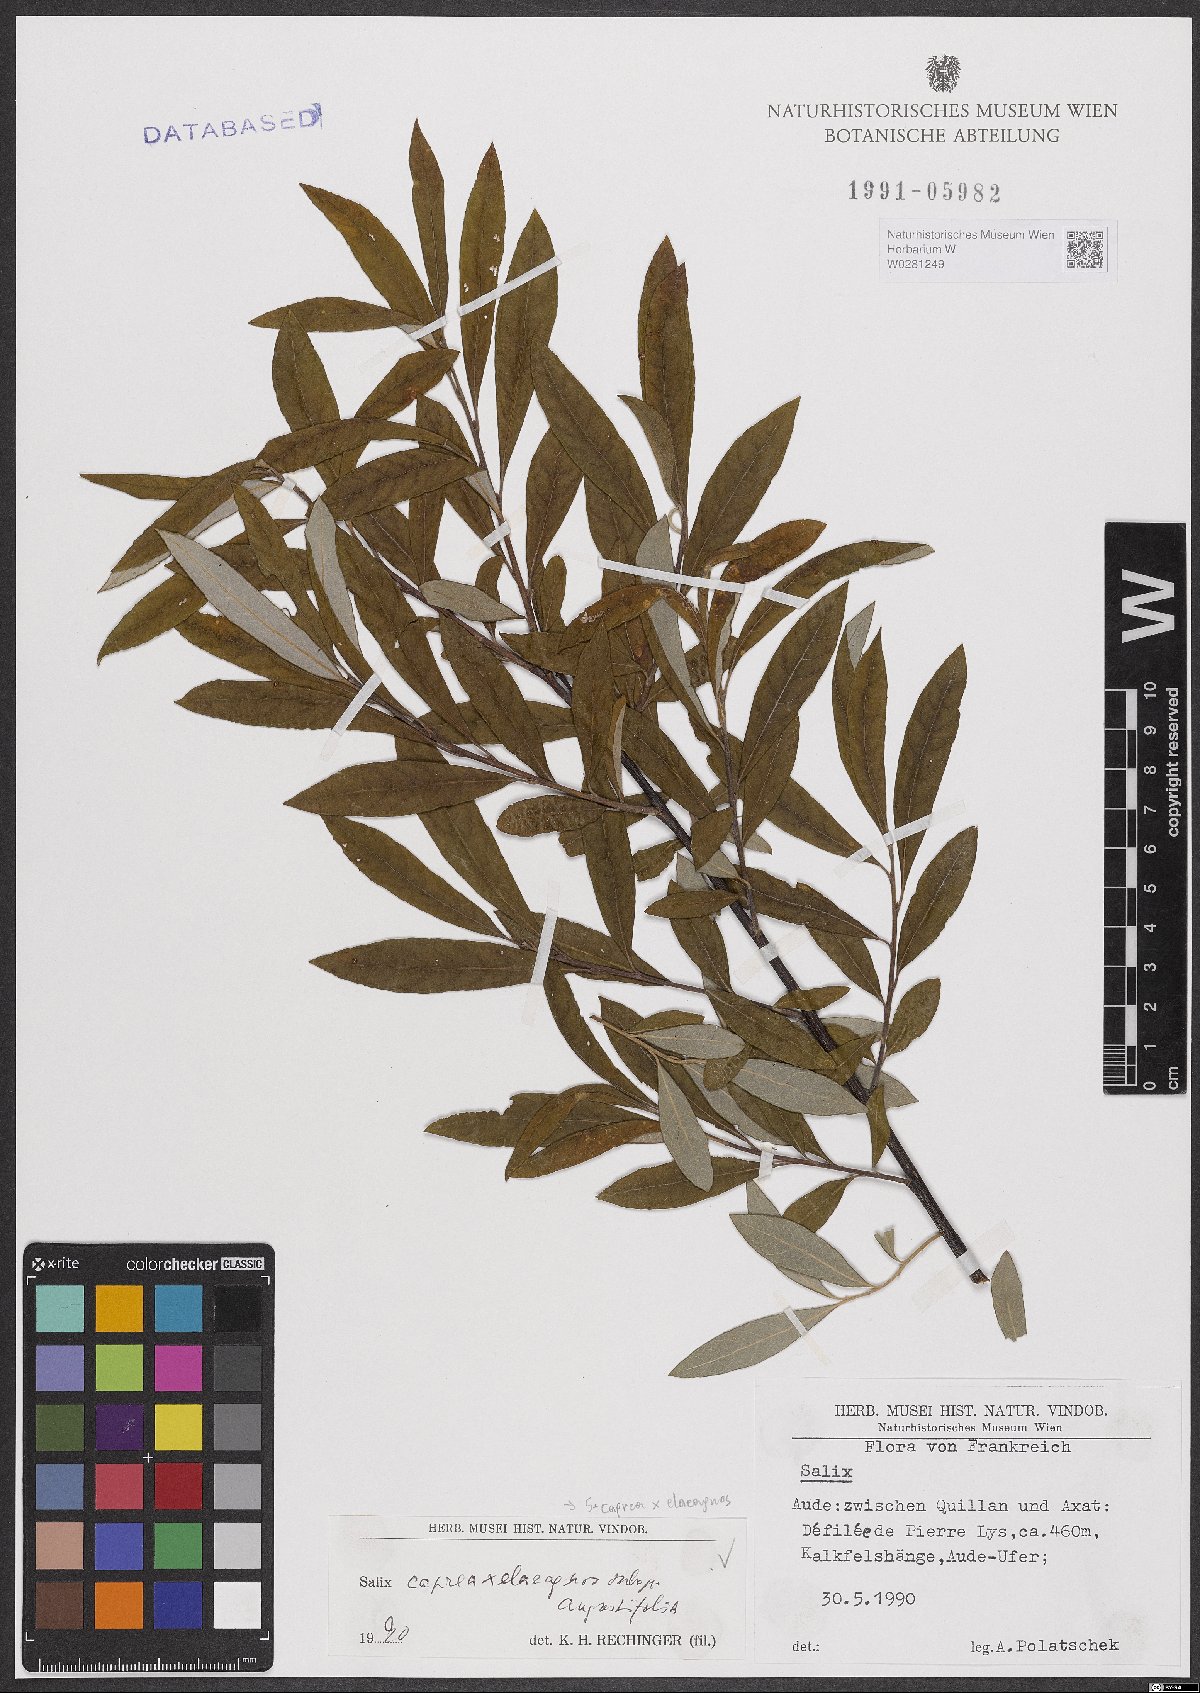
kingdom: Plantae
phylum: Tracheophyta
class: Magnoliopsida
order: Malpighiales
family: Salicaceae
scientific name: Salicaceae
